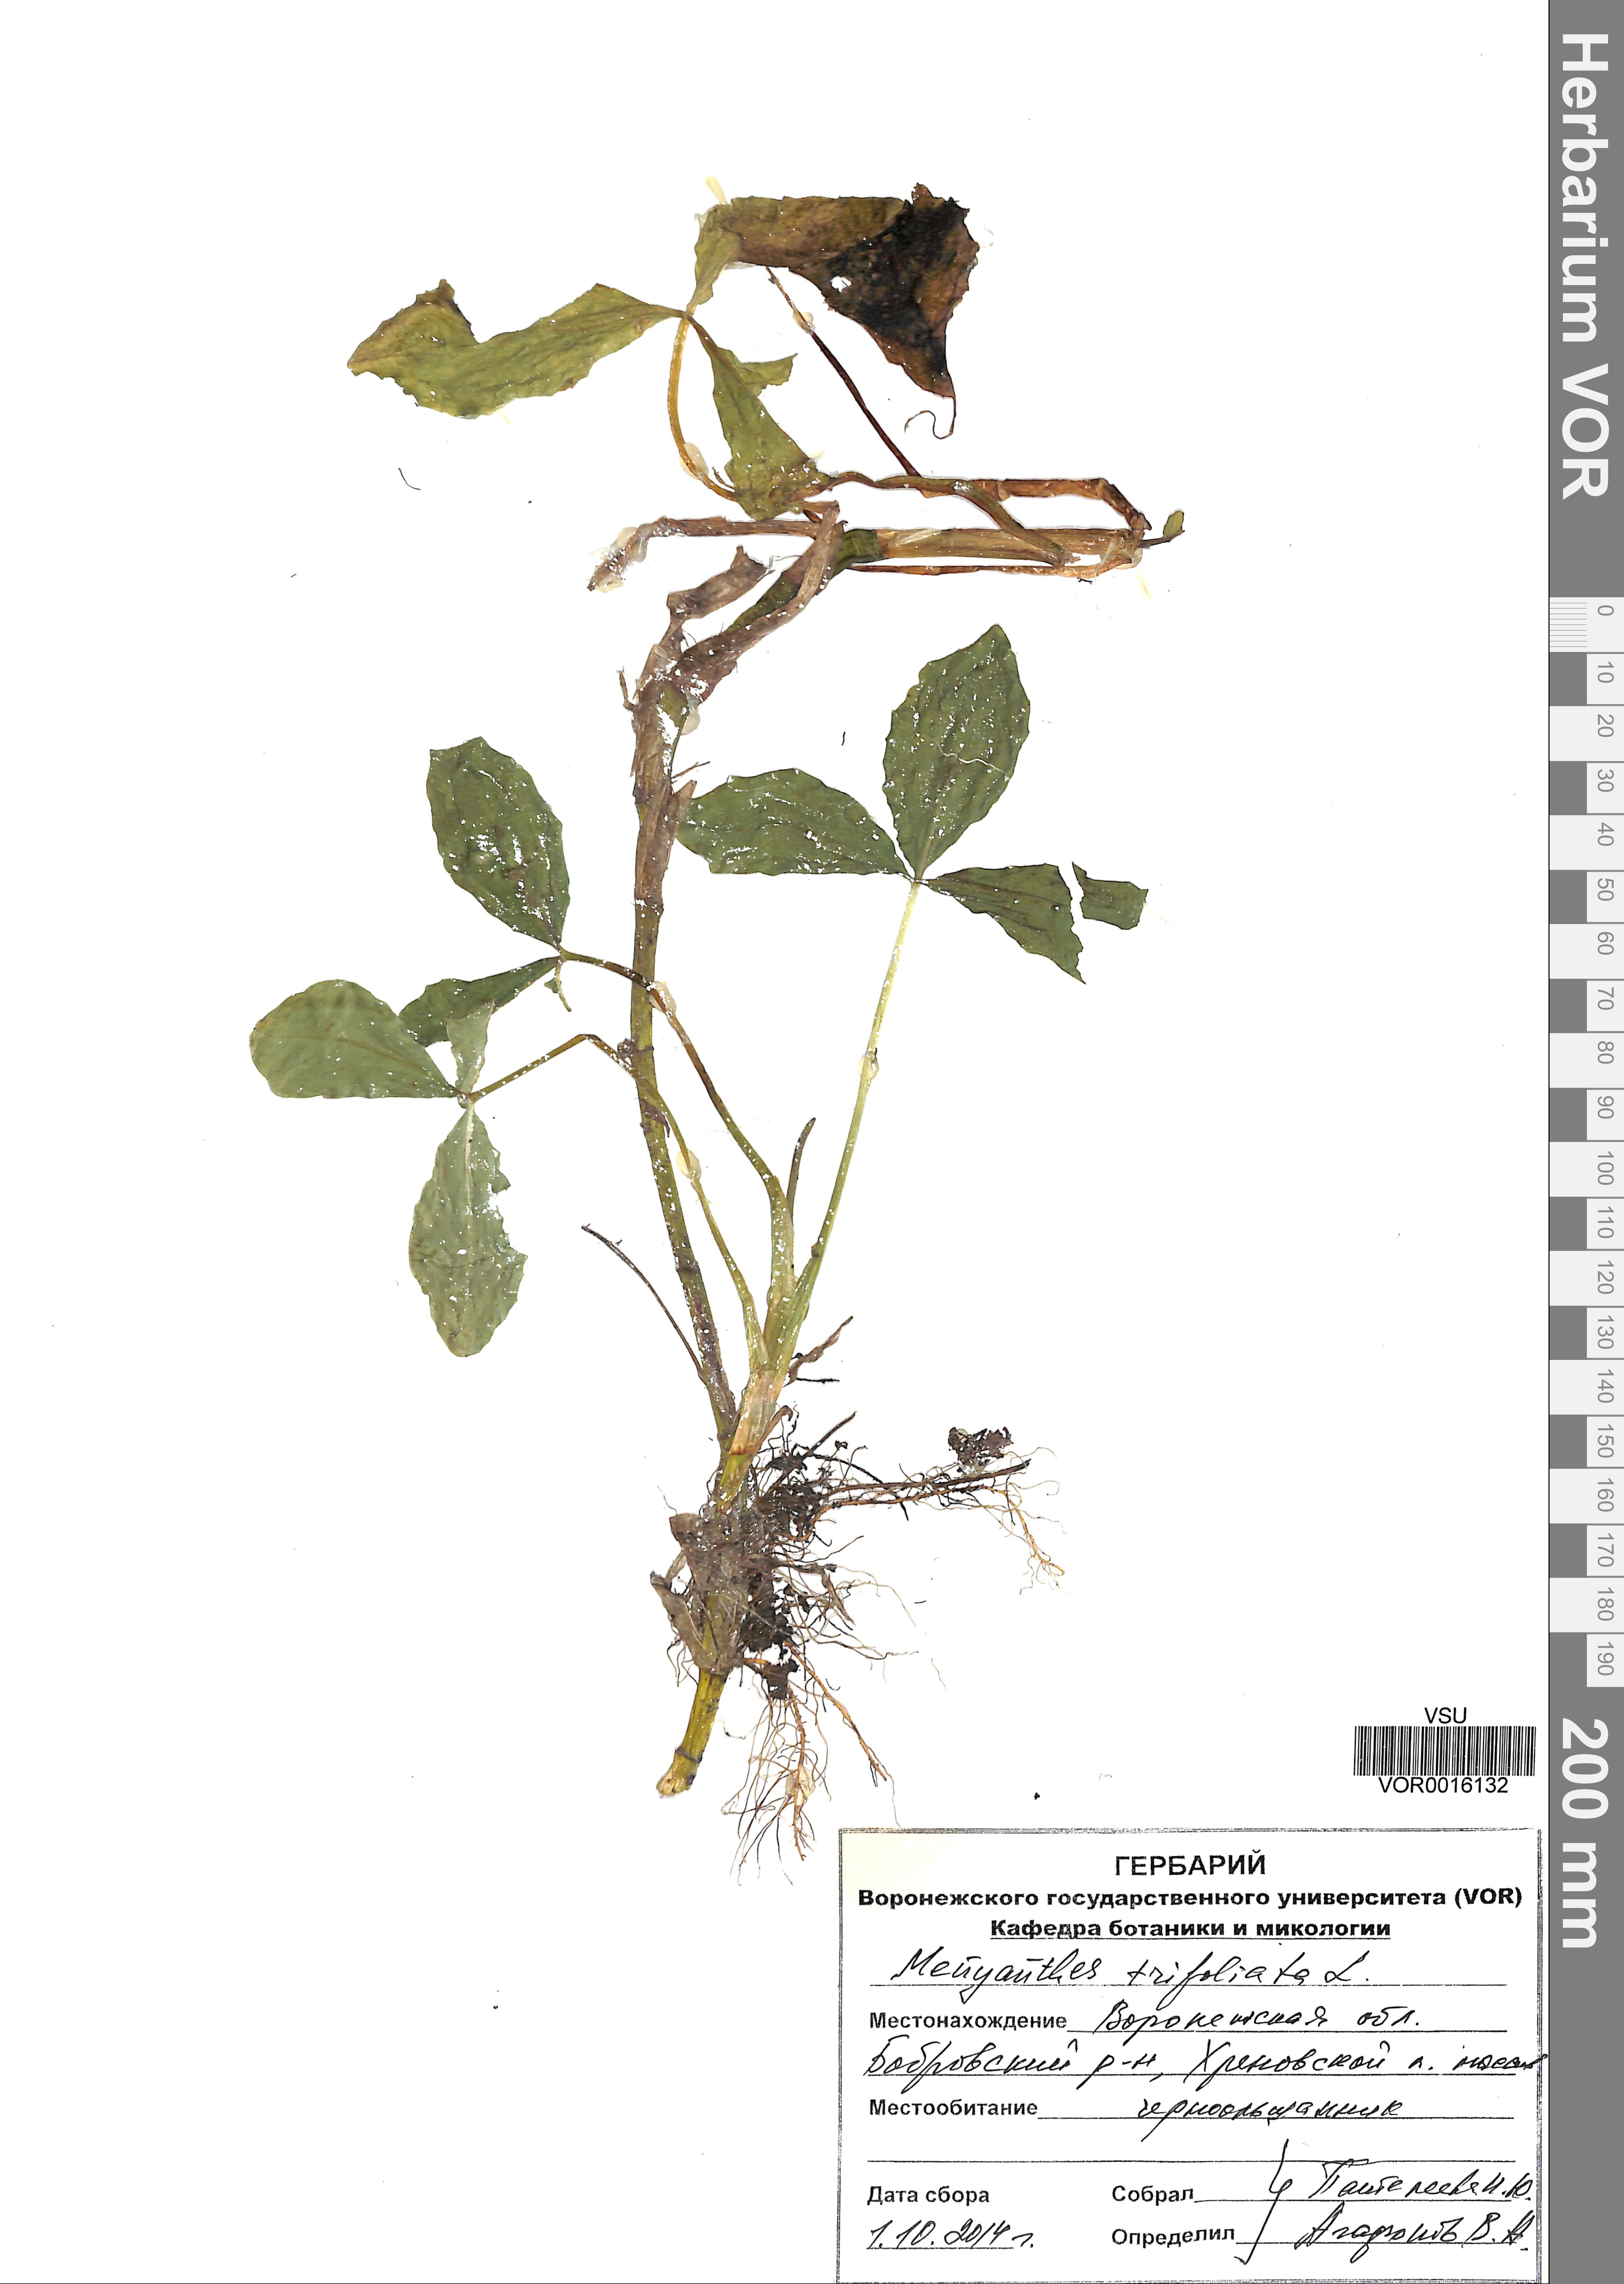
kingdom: Plantae
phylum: Tracheophyta
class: Magnoliopsida
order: Asterales
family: Menyanthaceae
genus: Menyanthes
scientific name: Menyanthes trifoliata
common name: Bogbean
